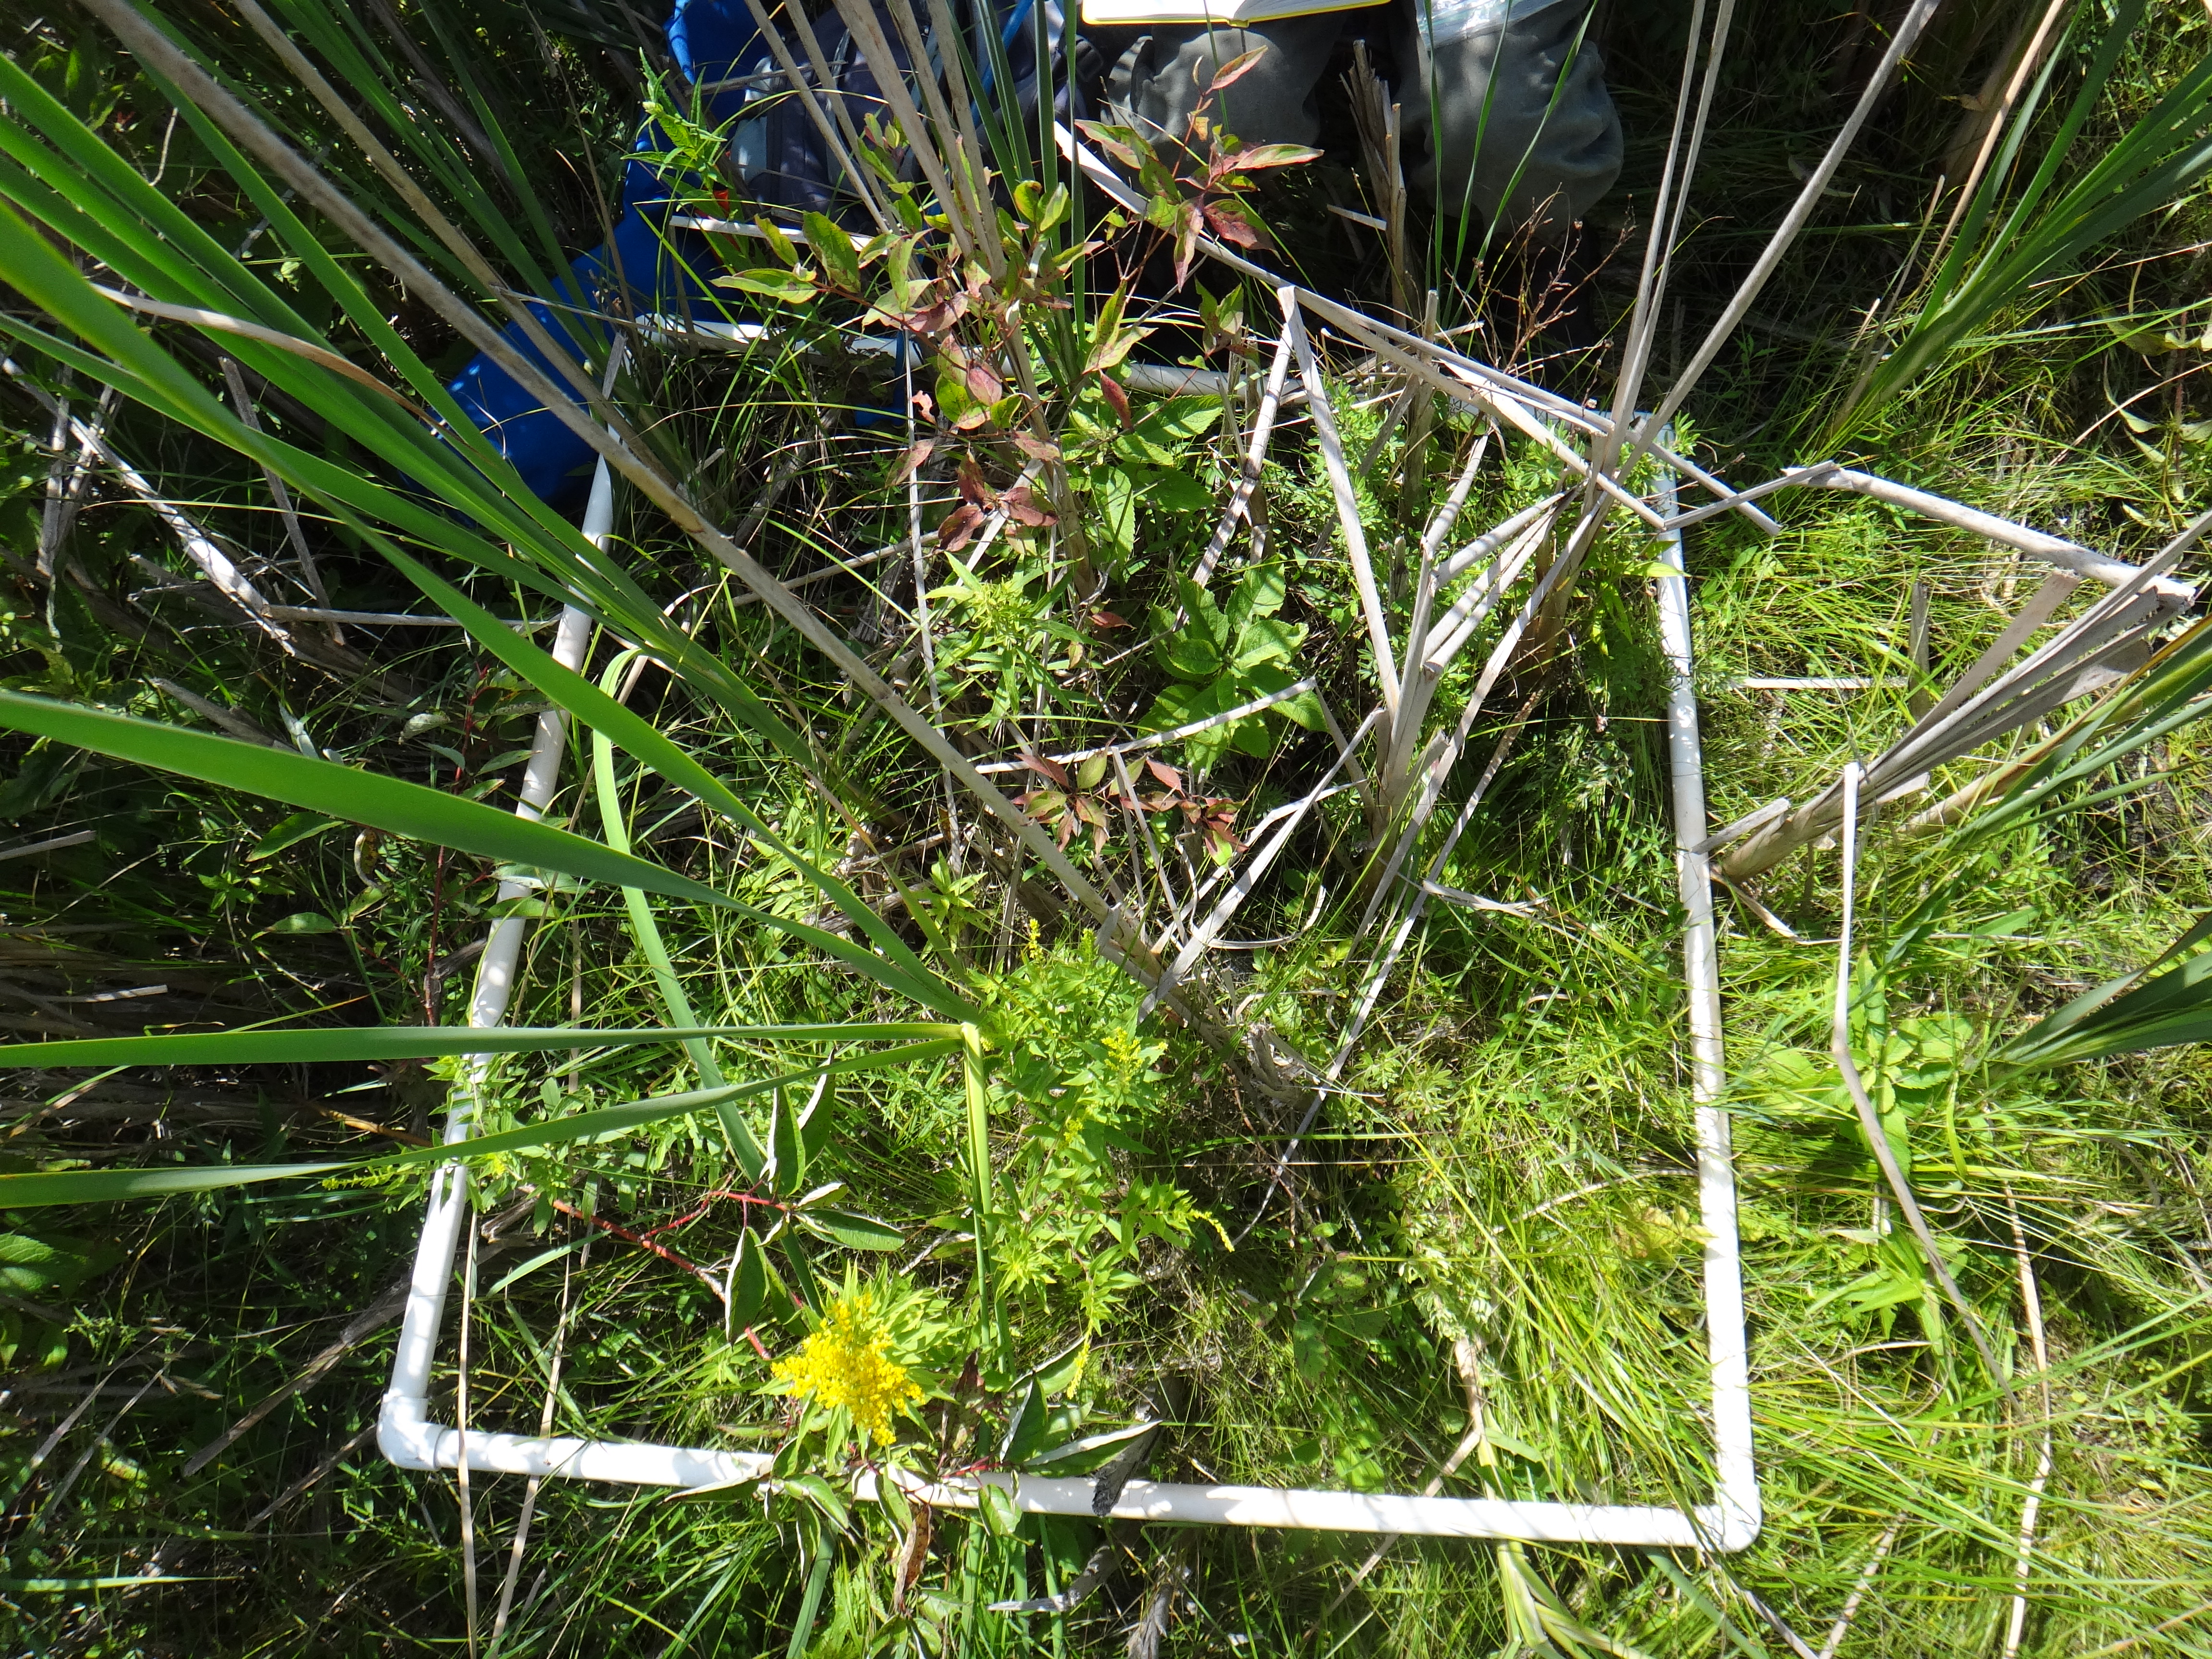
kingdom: Plantae
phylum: Tracheophyta
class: Liliopsida
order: Poales
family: Poaceae
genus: Muhlenbergia
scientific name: Muhlenbergia glomerata
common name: Bog muhly
